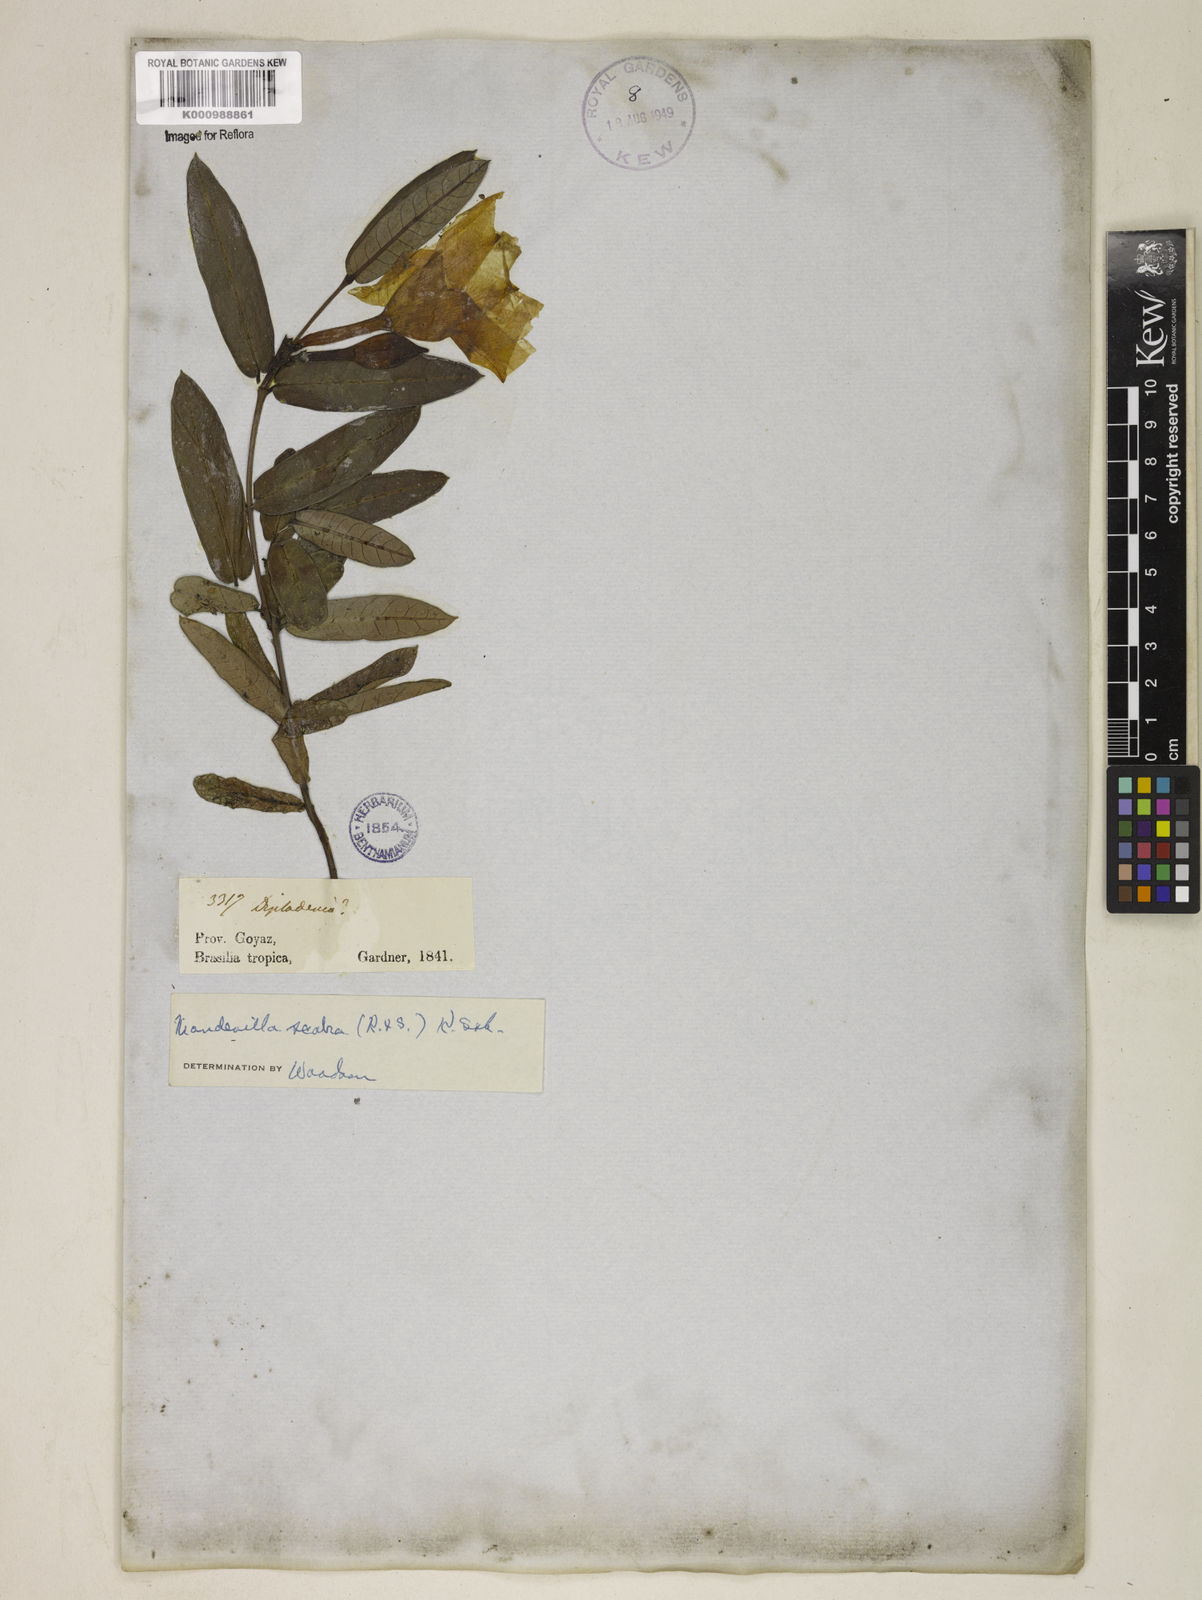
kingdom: Plantae
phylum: Tracheophyta
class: Magnoliopsida
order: Gentianales
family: Apocynaceae
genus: Mandevilla
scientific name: Mandevilla scabra
